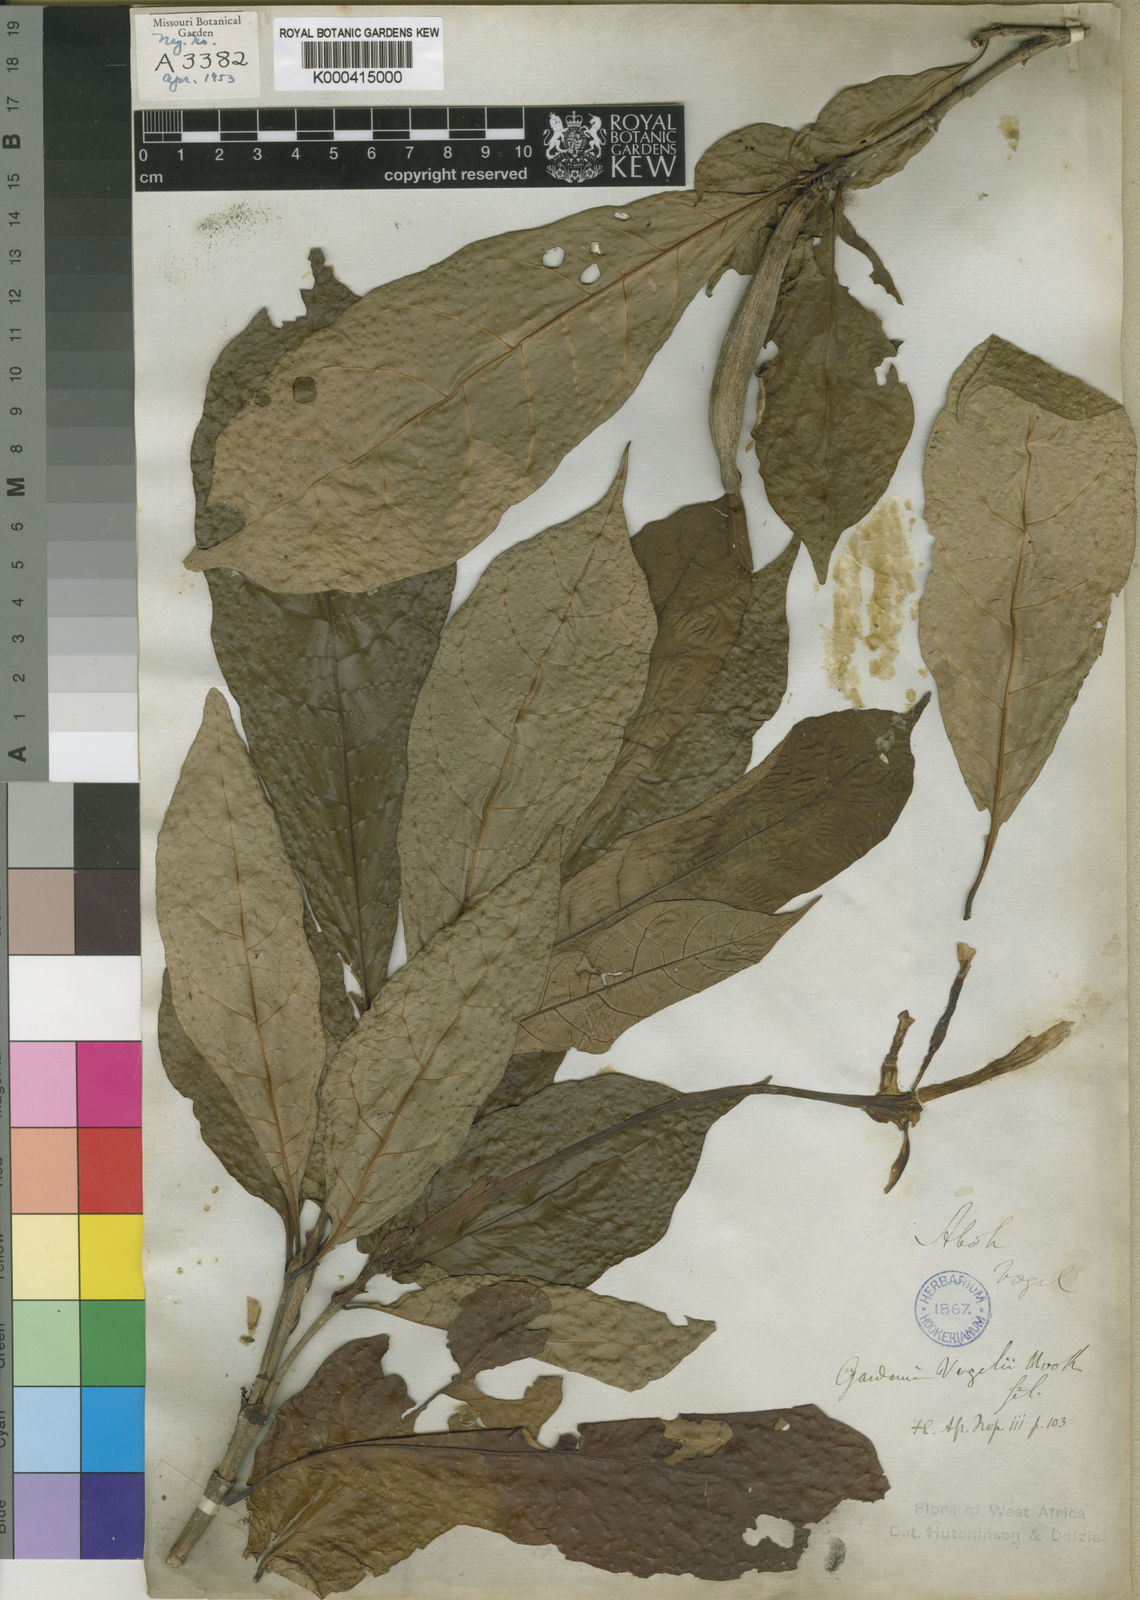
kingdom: Plantae
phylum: Tracheophyta
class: Magnoliopsida
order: Gentianales
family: Rubiaceae
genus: Gardenia
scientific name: Gardenia vogelii
